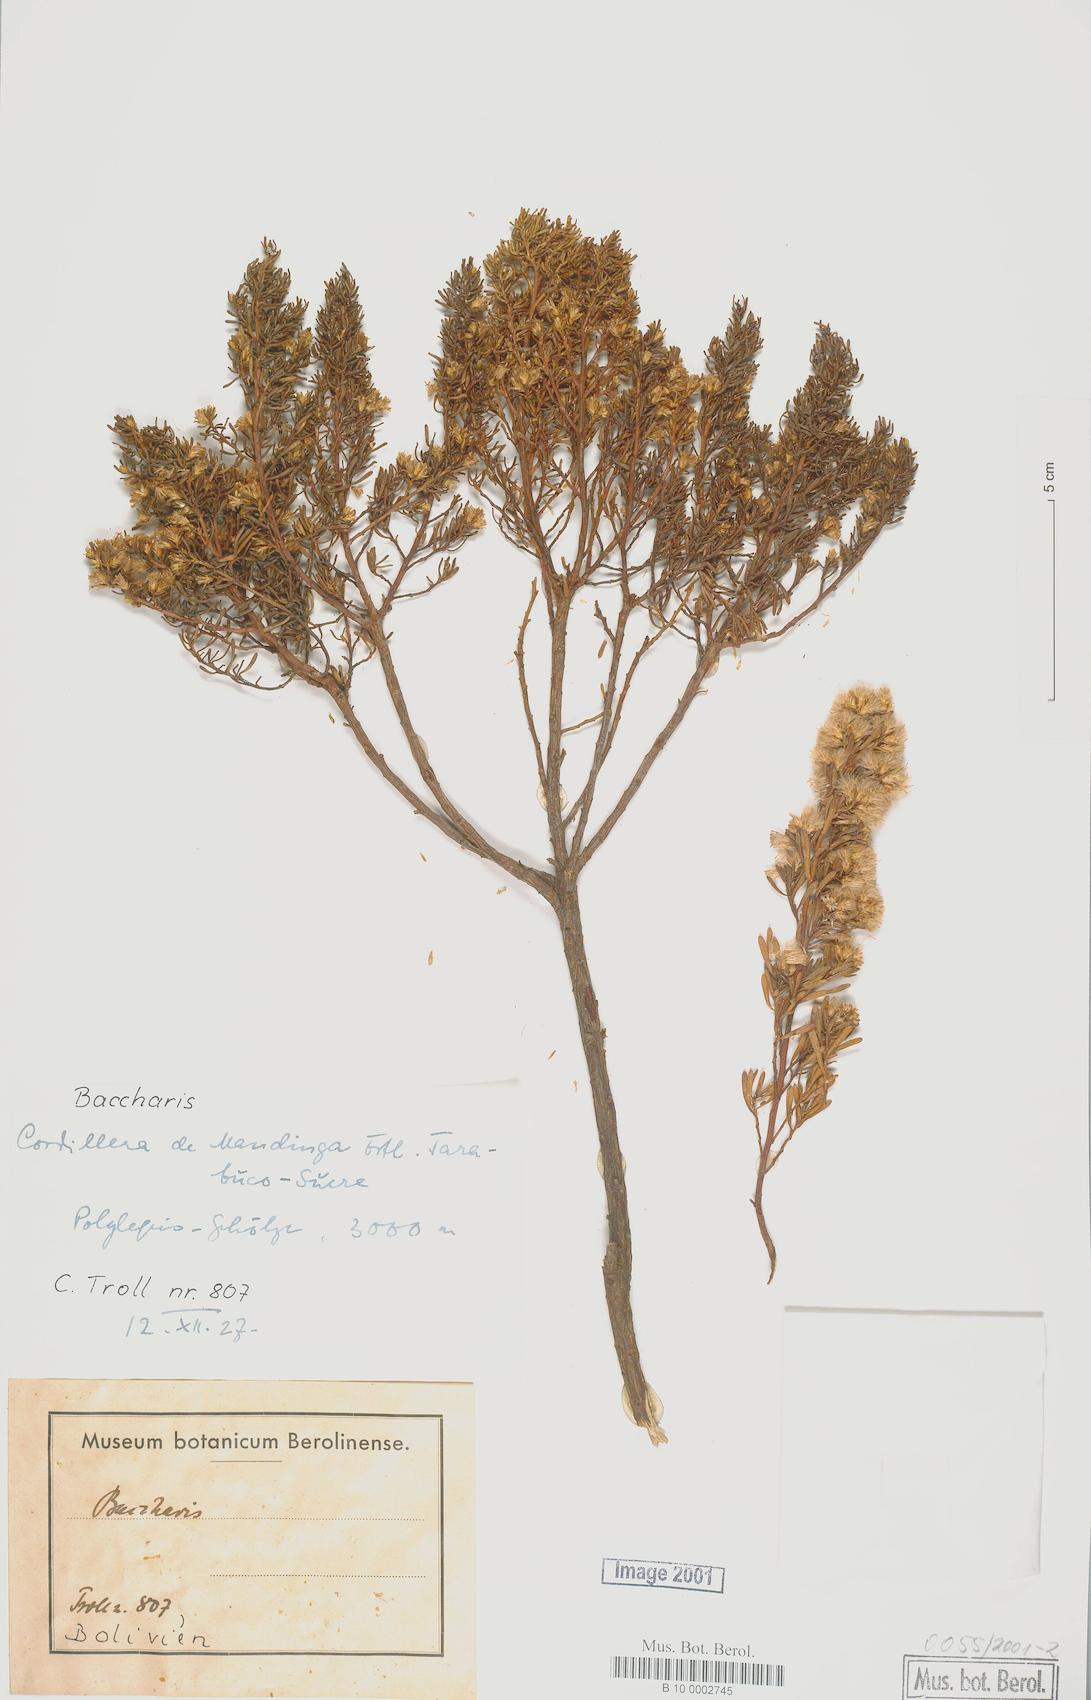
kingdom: Plantae
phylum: Tracheophyta
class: Magnoliopsida
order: Asterales
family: Asteraceae
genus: Baccharis
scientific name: Baccharis
